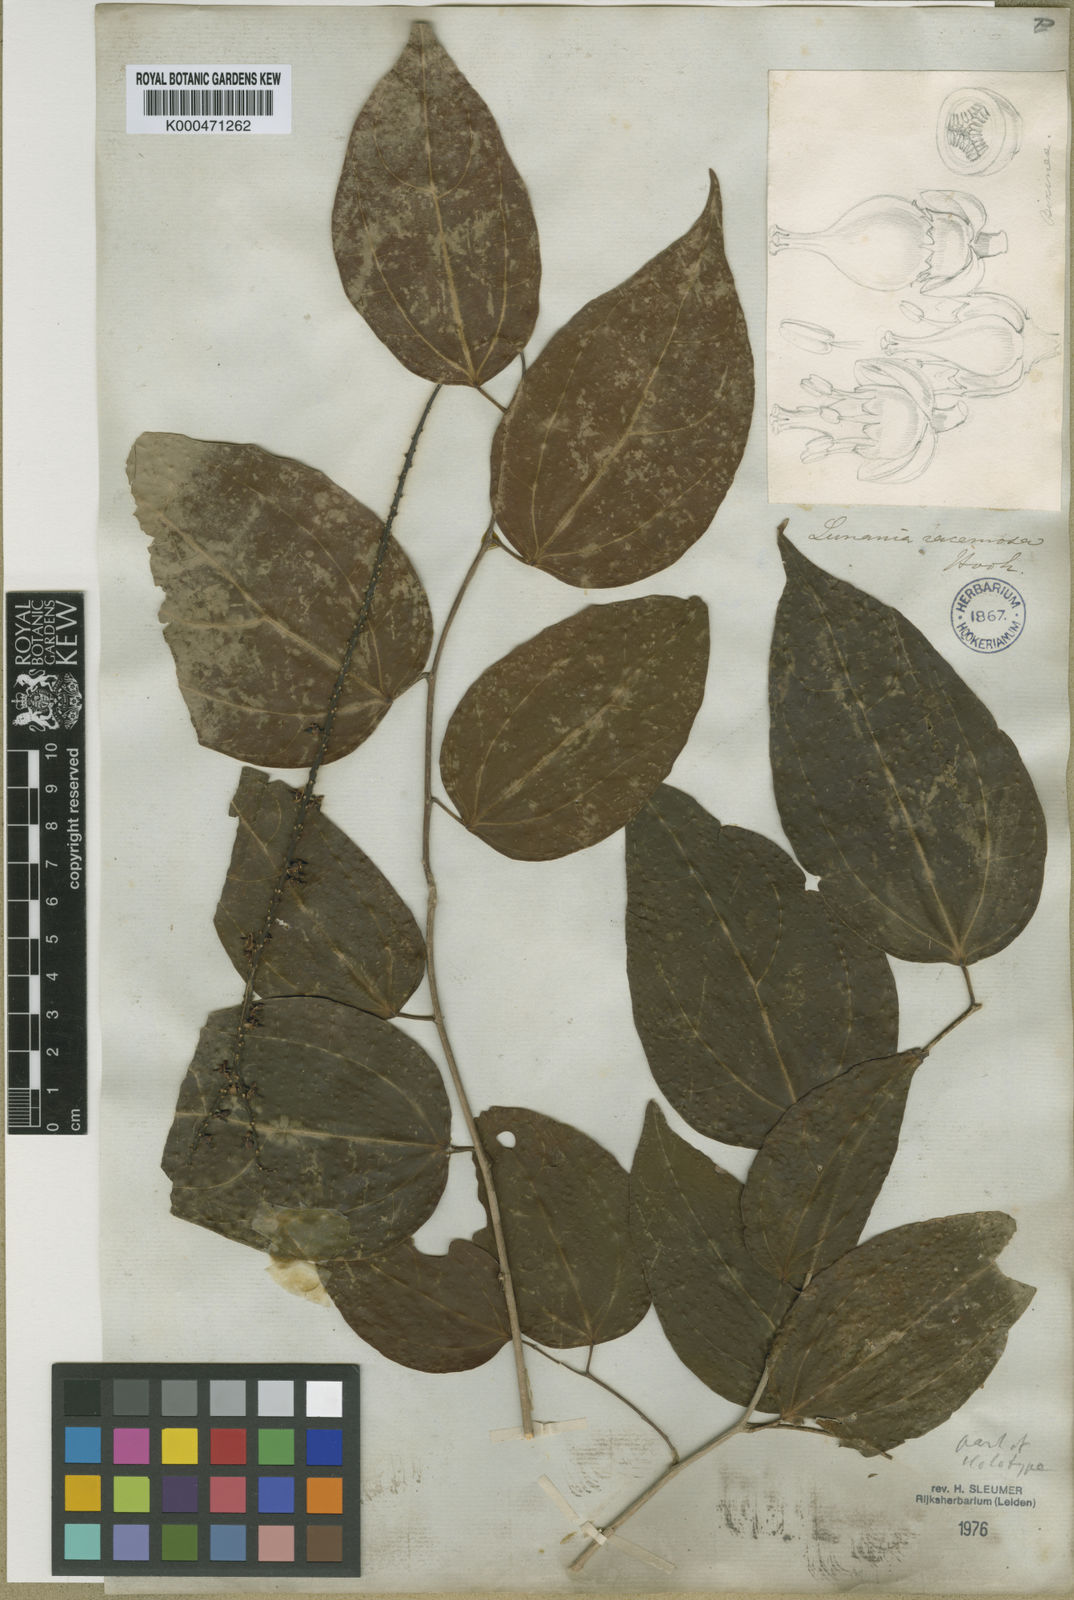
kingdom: Plantae
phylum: Tracheophyta
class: Magnoliopsida
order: Malpighiales
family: Salicaceae
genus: Lunania
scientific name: Lunania racemosa
